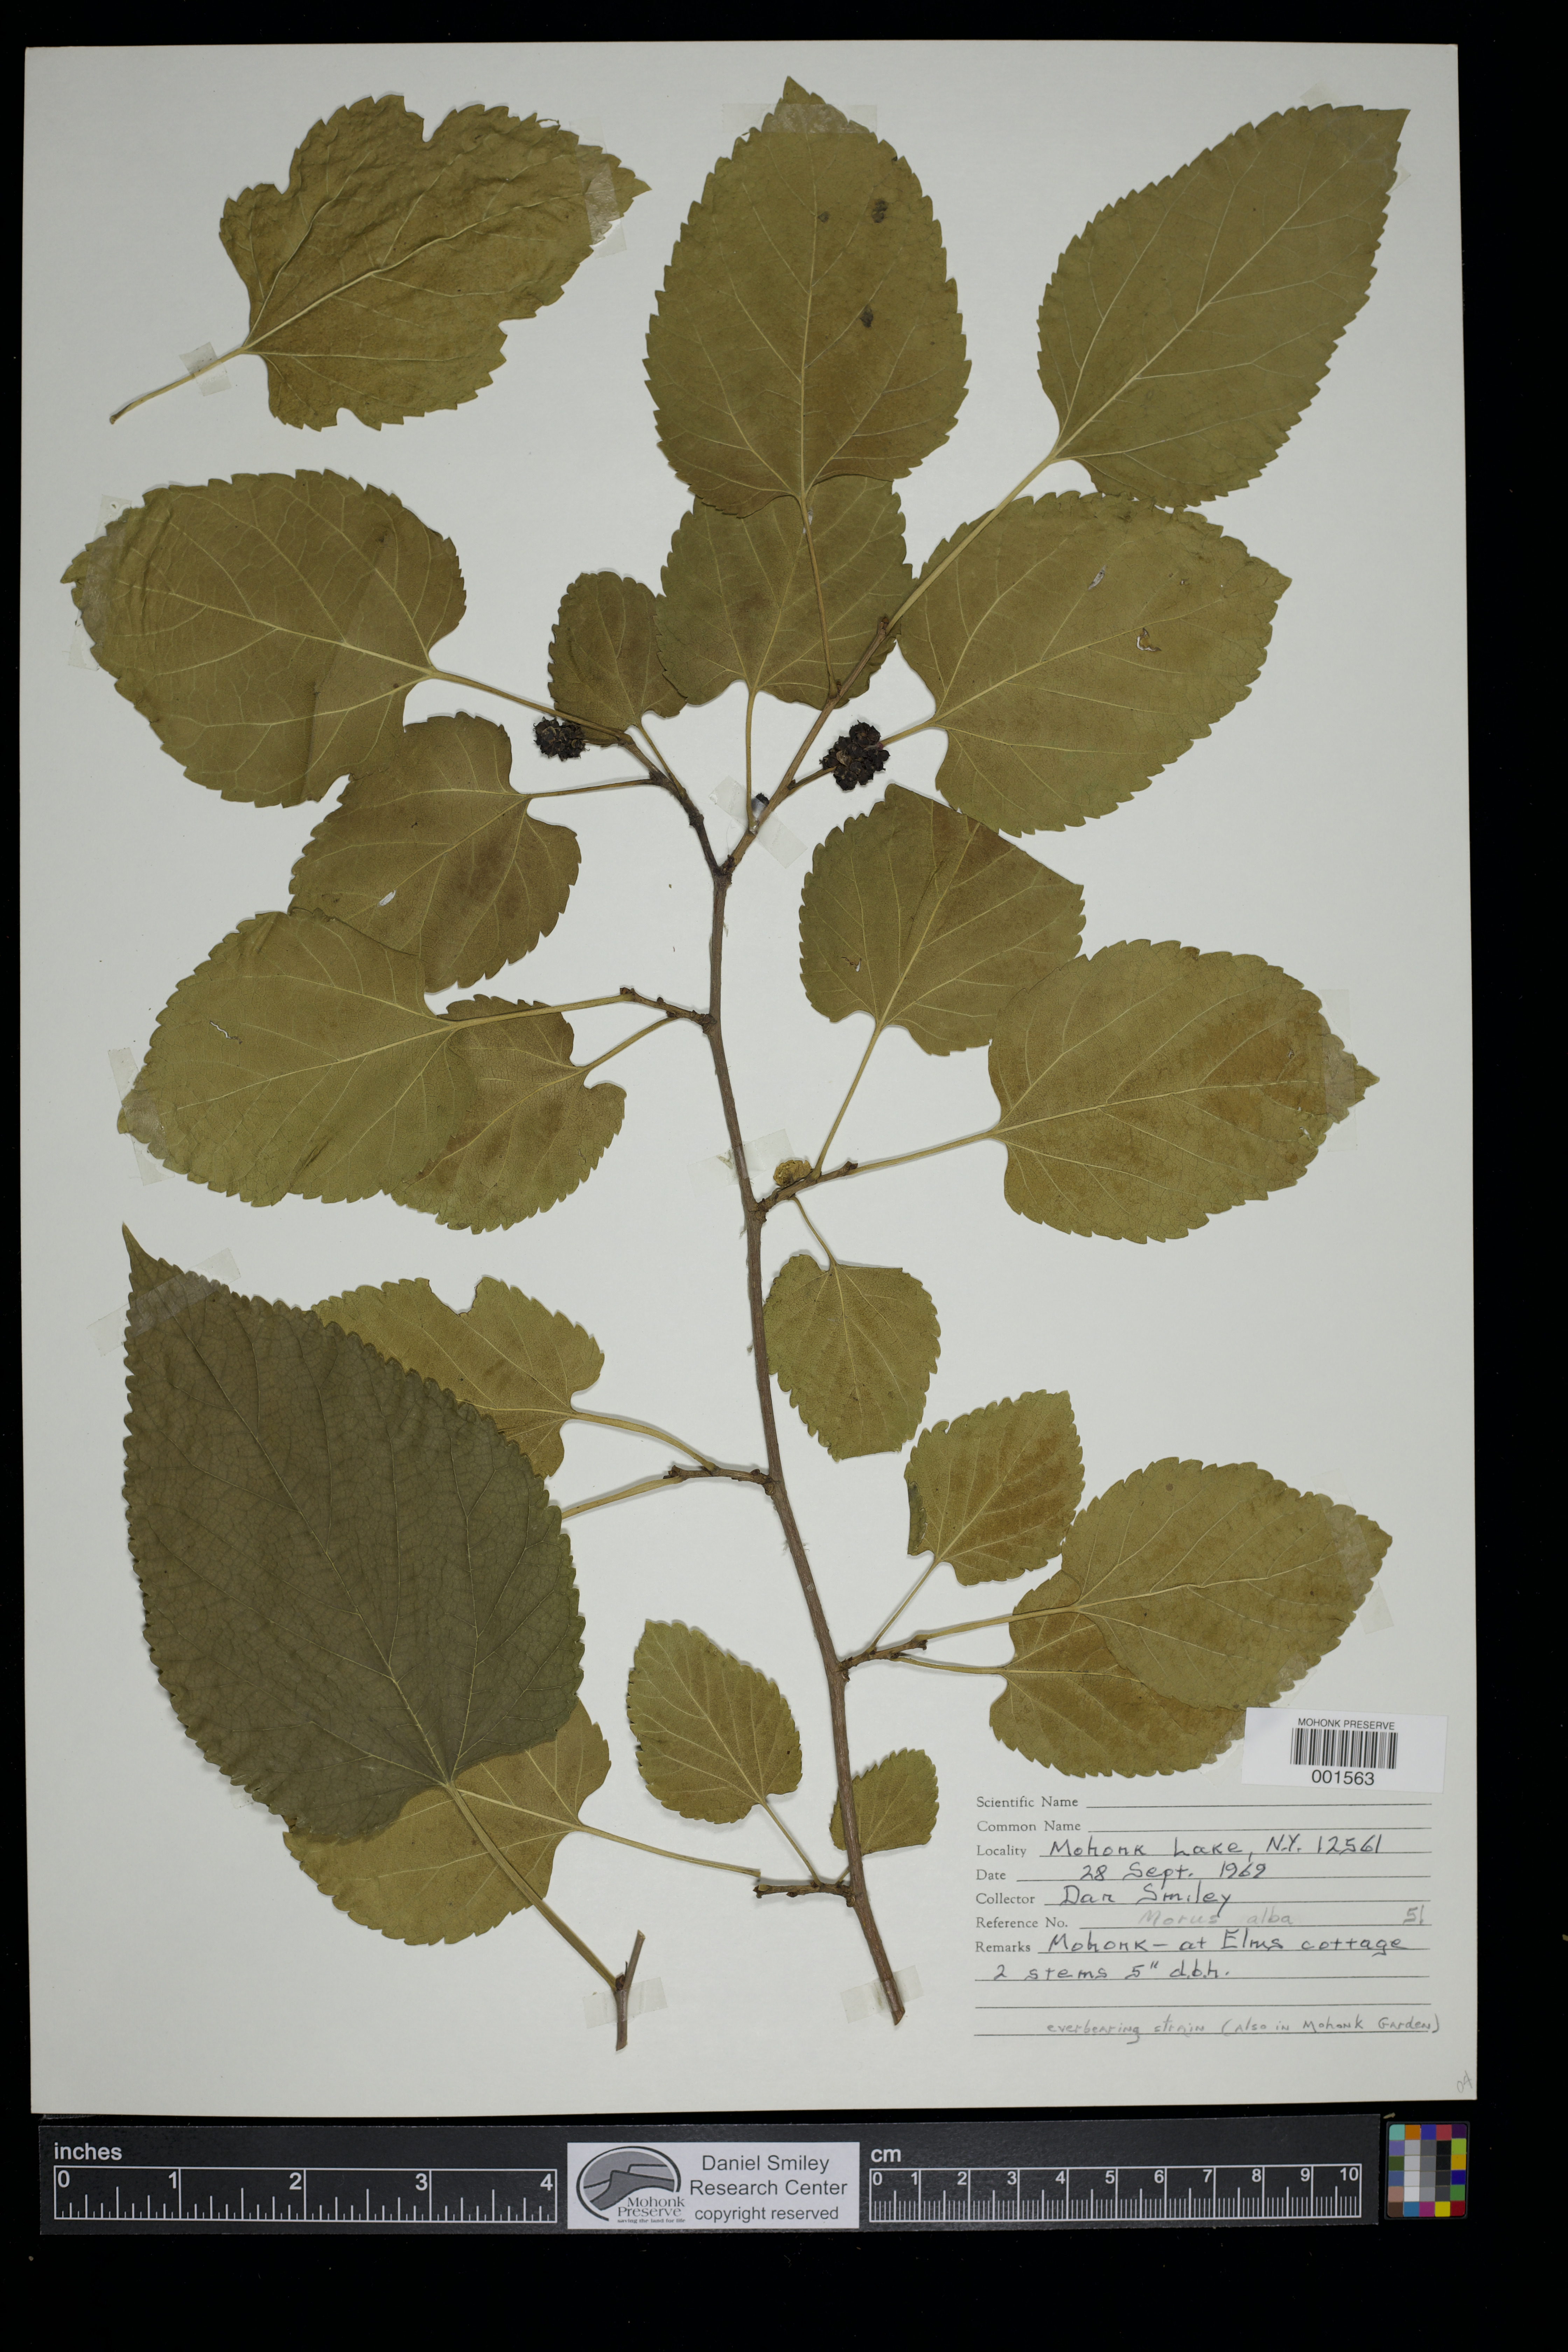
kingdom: Plantae
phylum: Tracheophyta
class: Magnoliopsida
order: Rosales
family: Moraceae
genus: Morus
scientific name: Morus alba
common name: White mulberry
